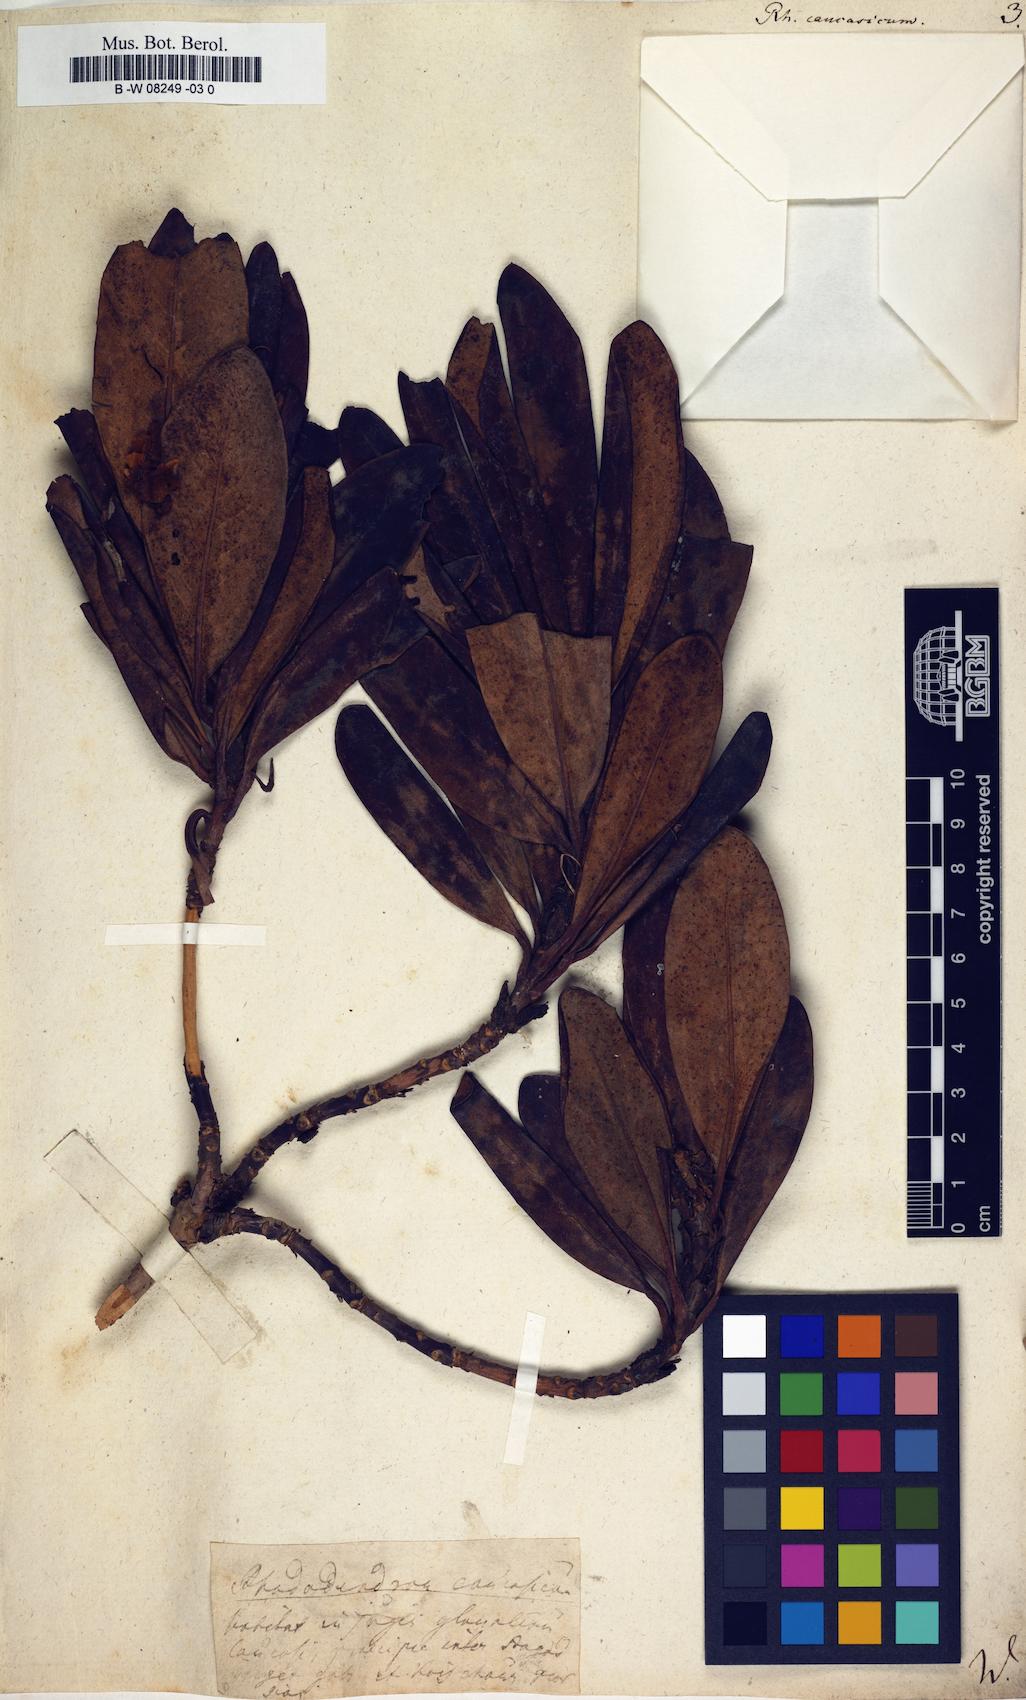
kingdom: Plantae
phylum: Tracheophyta
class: Magnoliopsida
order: Ericales
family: Ericaceae
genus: Rhododendron
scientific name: Rhododendron caucasicum
